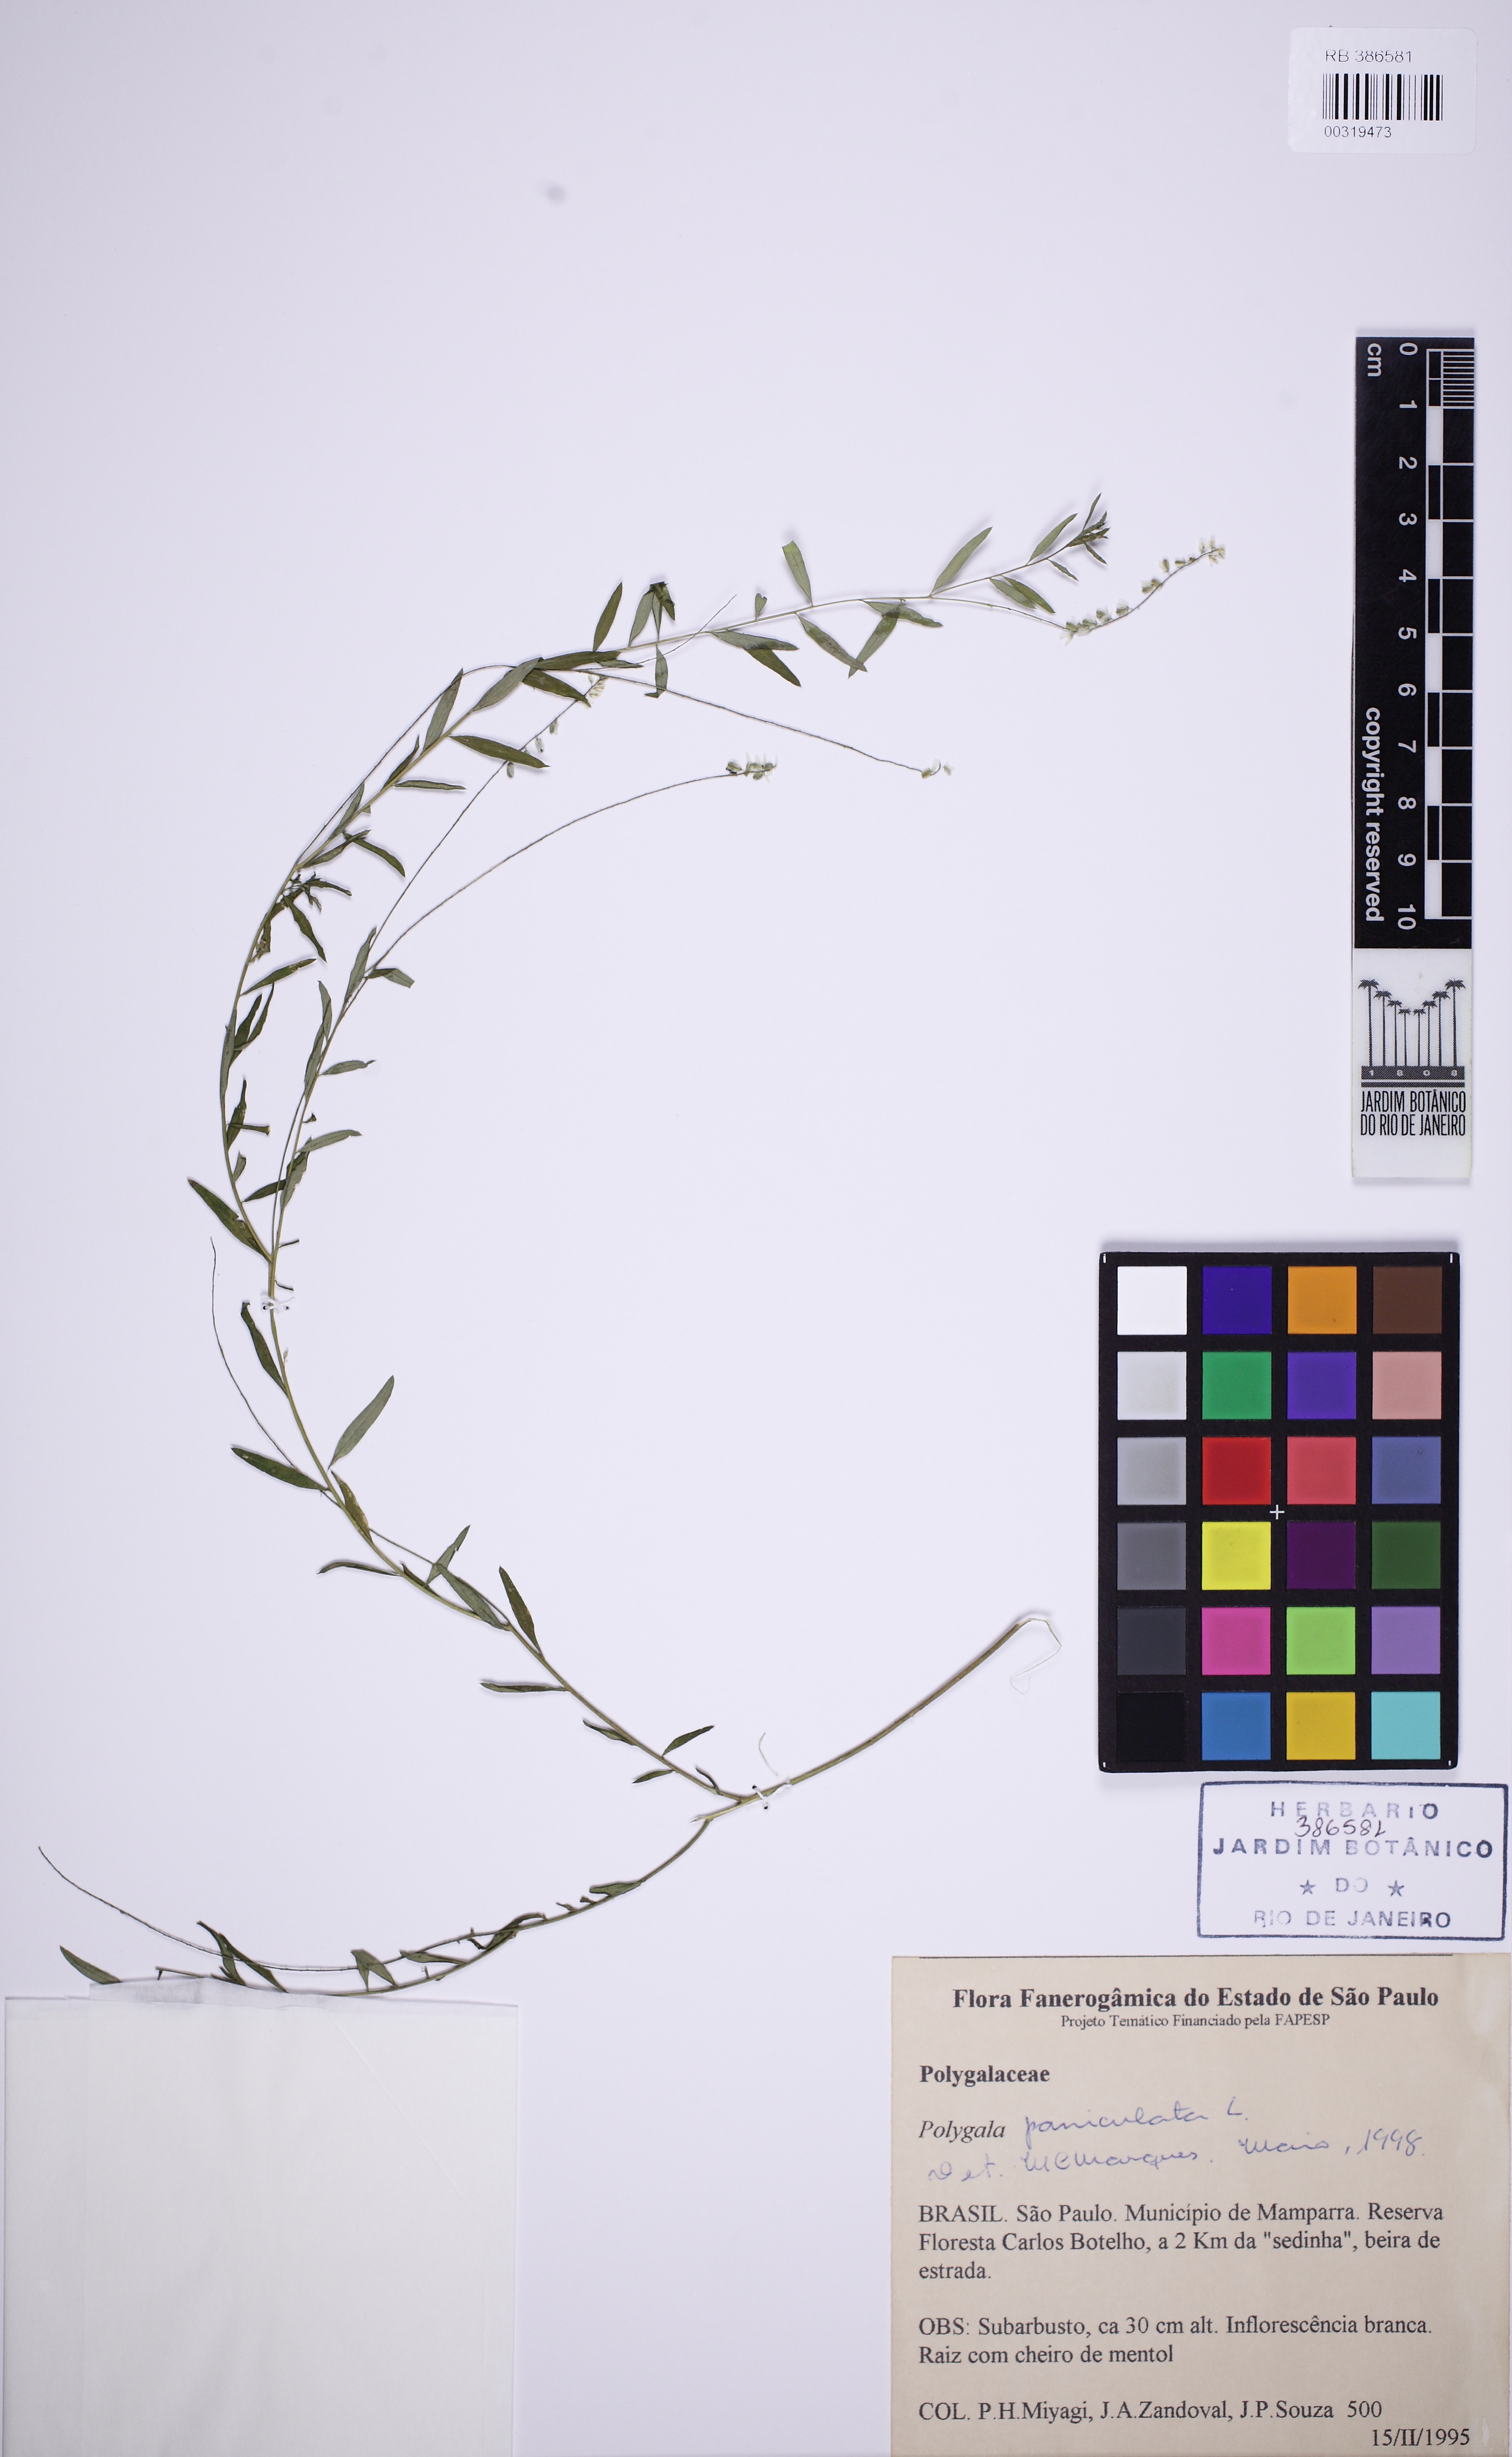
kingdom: Plantae
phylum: Tracheophyta
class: Magnoliopsida
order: Fabales
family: Polygalaceae
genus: Polygala
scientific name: Polygala paniculata
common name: Orosne
